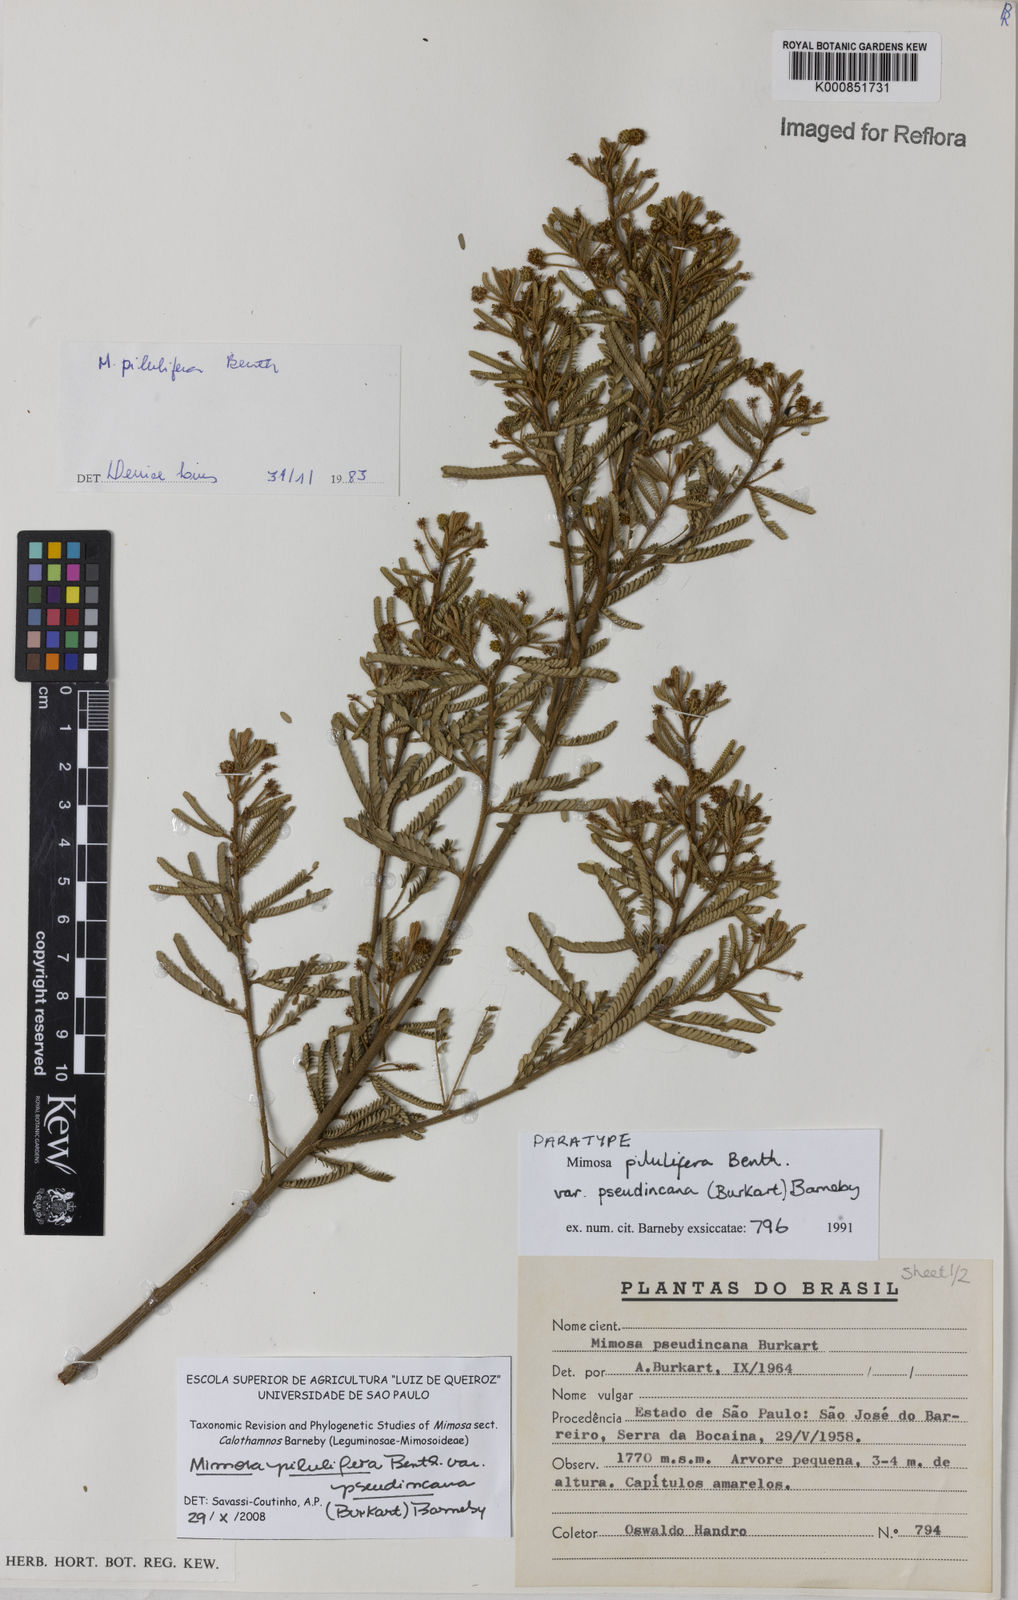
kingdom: Plantae
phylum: Tracheophyta
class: Magnoliopsida
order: Fabales
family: Fabaceae
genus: Mimosa
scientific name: Mimosa pilulifera
